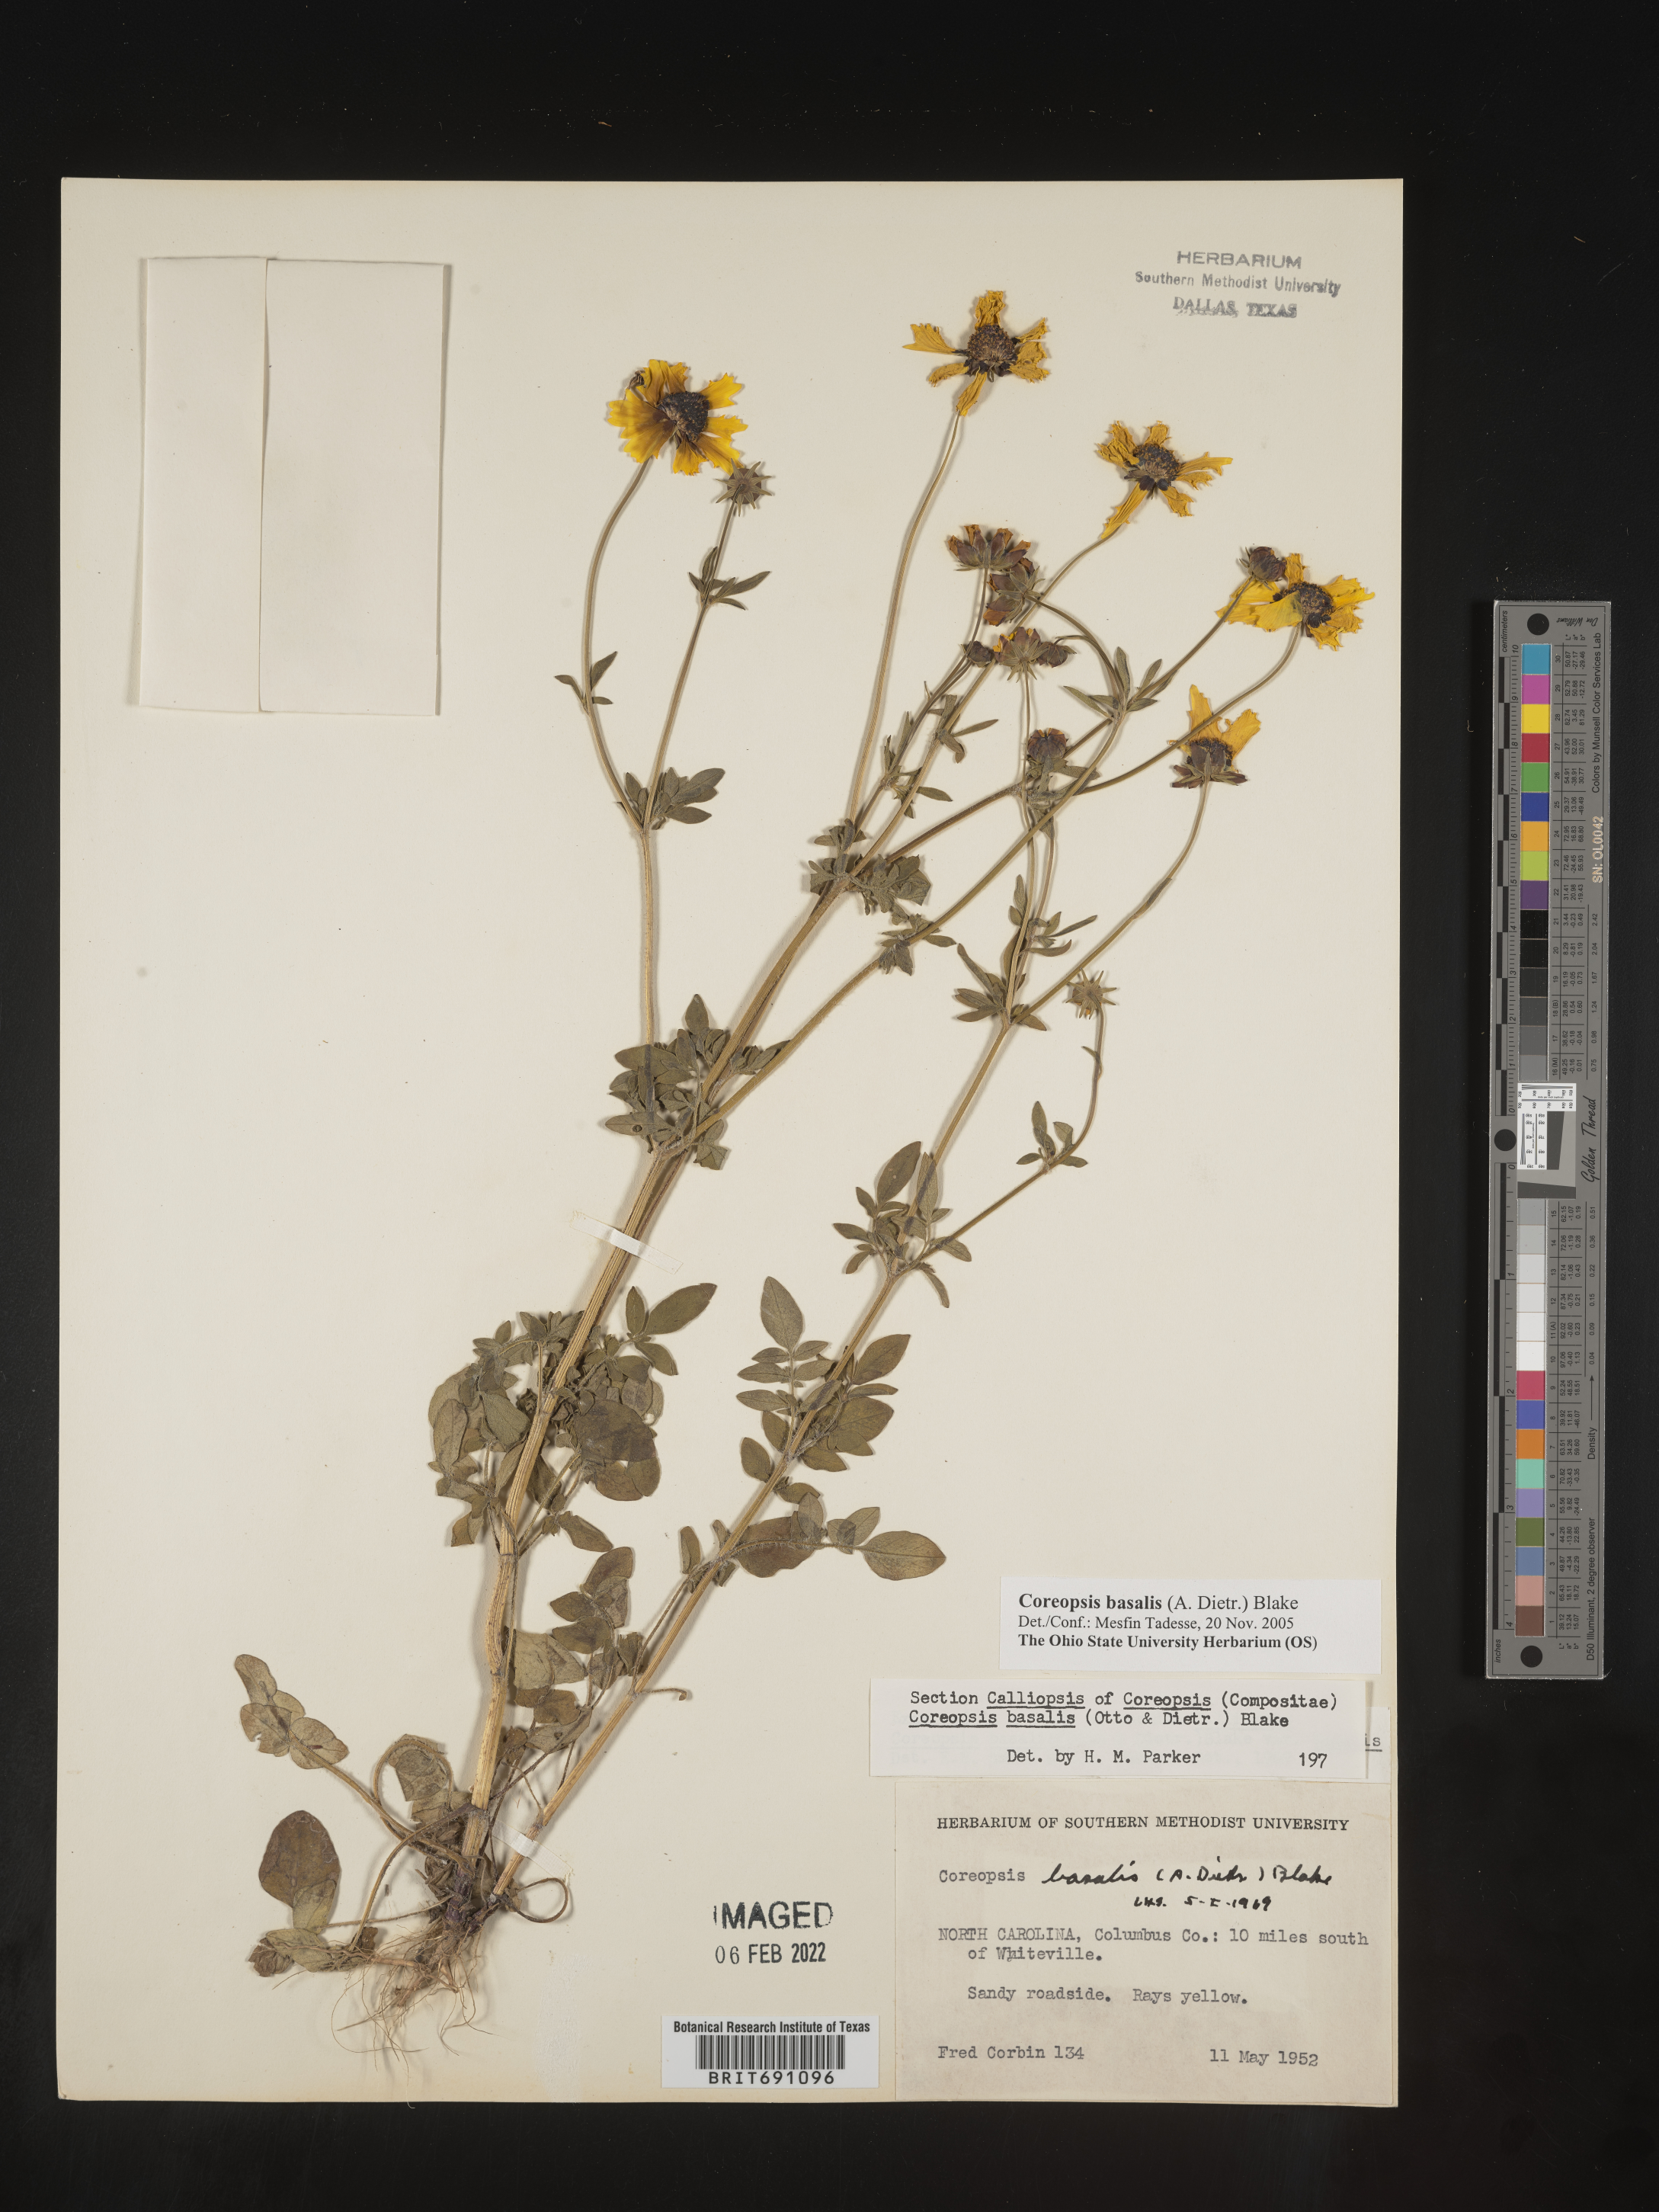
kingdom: Plantae
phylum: Tracheophyta
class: Magnoliopsida
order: Asterales
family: Asteraceae
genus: Coreopsis
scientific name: Coreopsis
